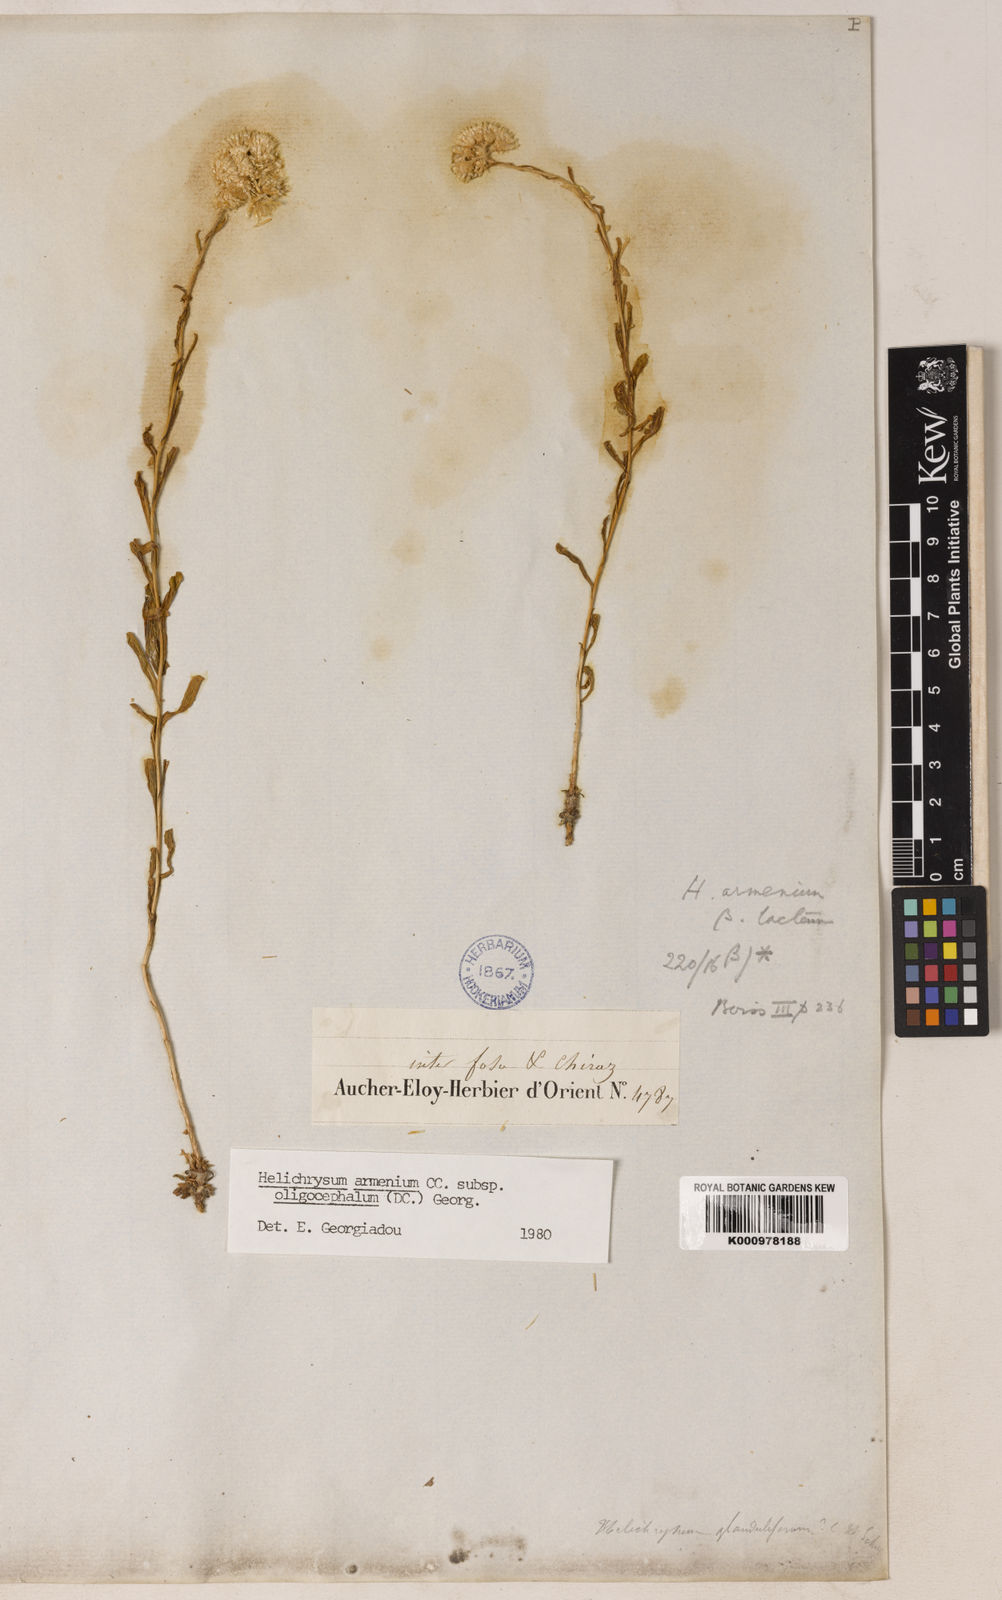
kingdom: Plantae
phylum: Tracheophyta
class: Magnoliopsida
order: Asterales
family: Asteraceae
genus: Helichrysum
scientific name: Helichrysum armenium
